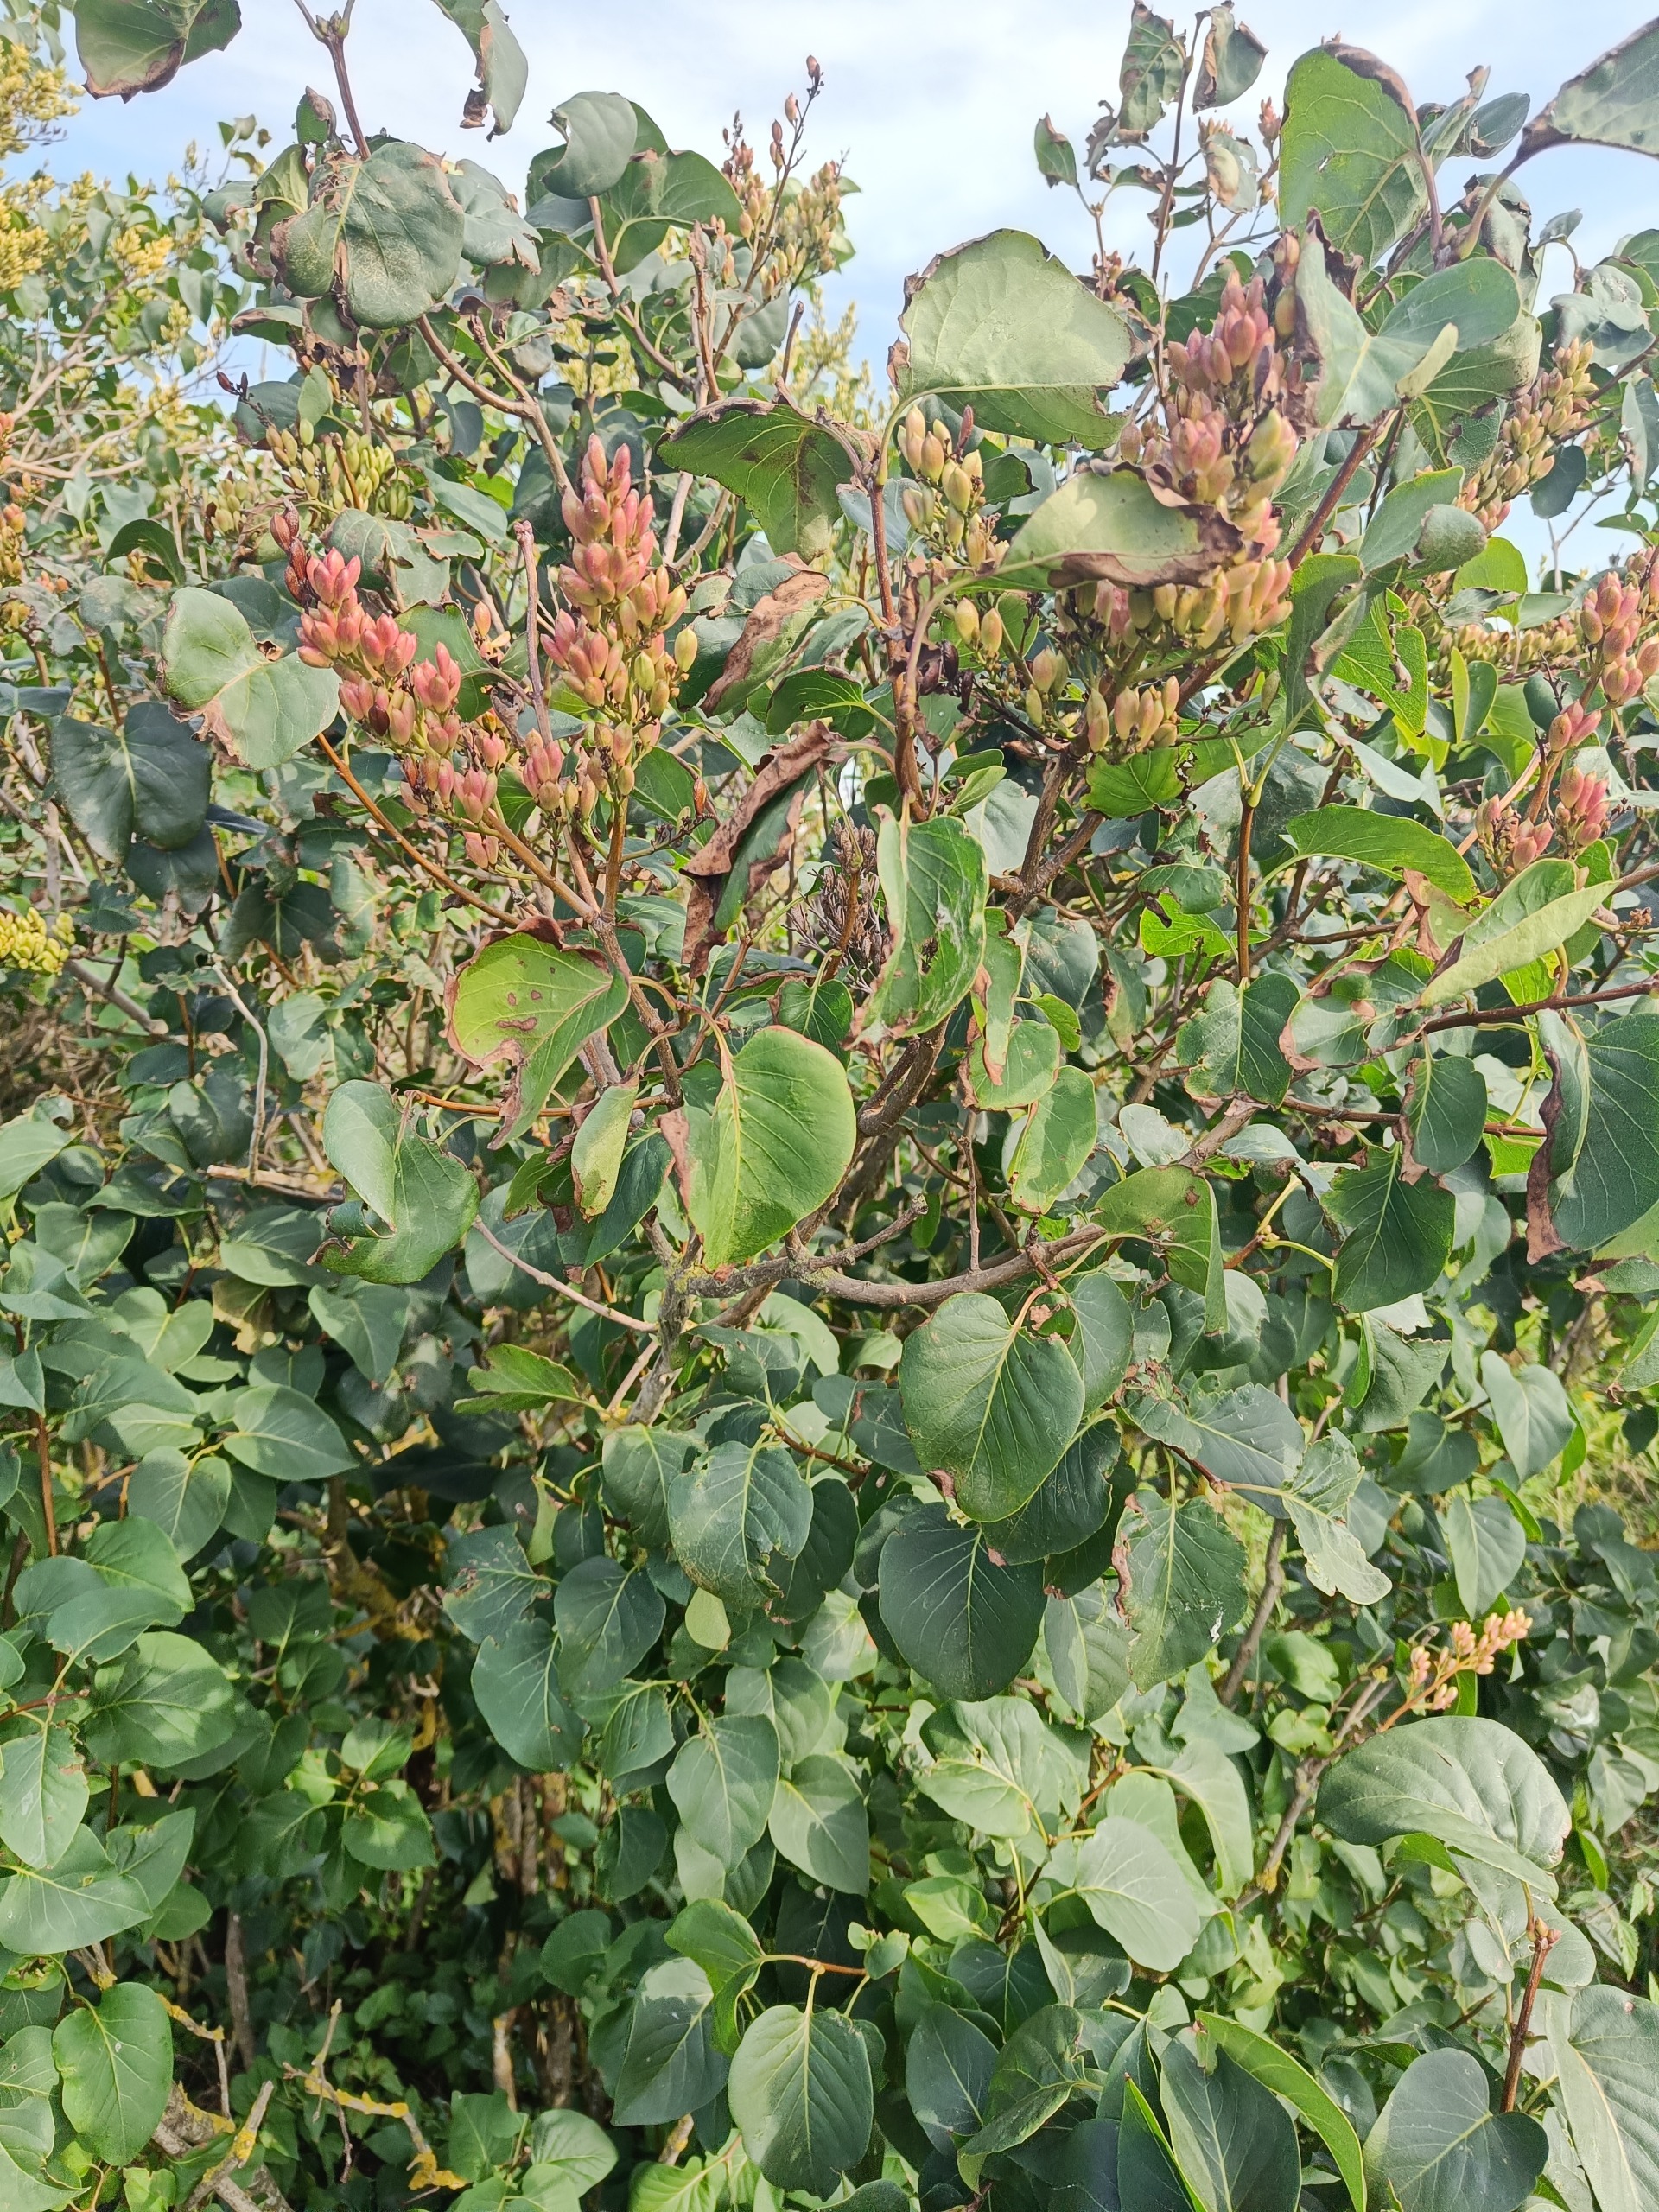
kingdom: Plantae
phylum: Tracheophyta
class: Magnoliopsida
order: Lamiales
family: Oleaceae
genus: Syringa
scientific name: Syringa vulgaris
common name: Syren
